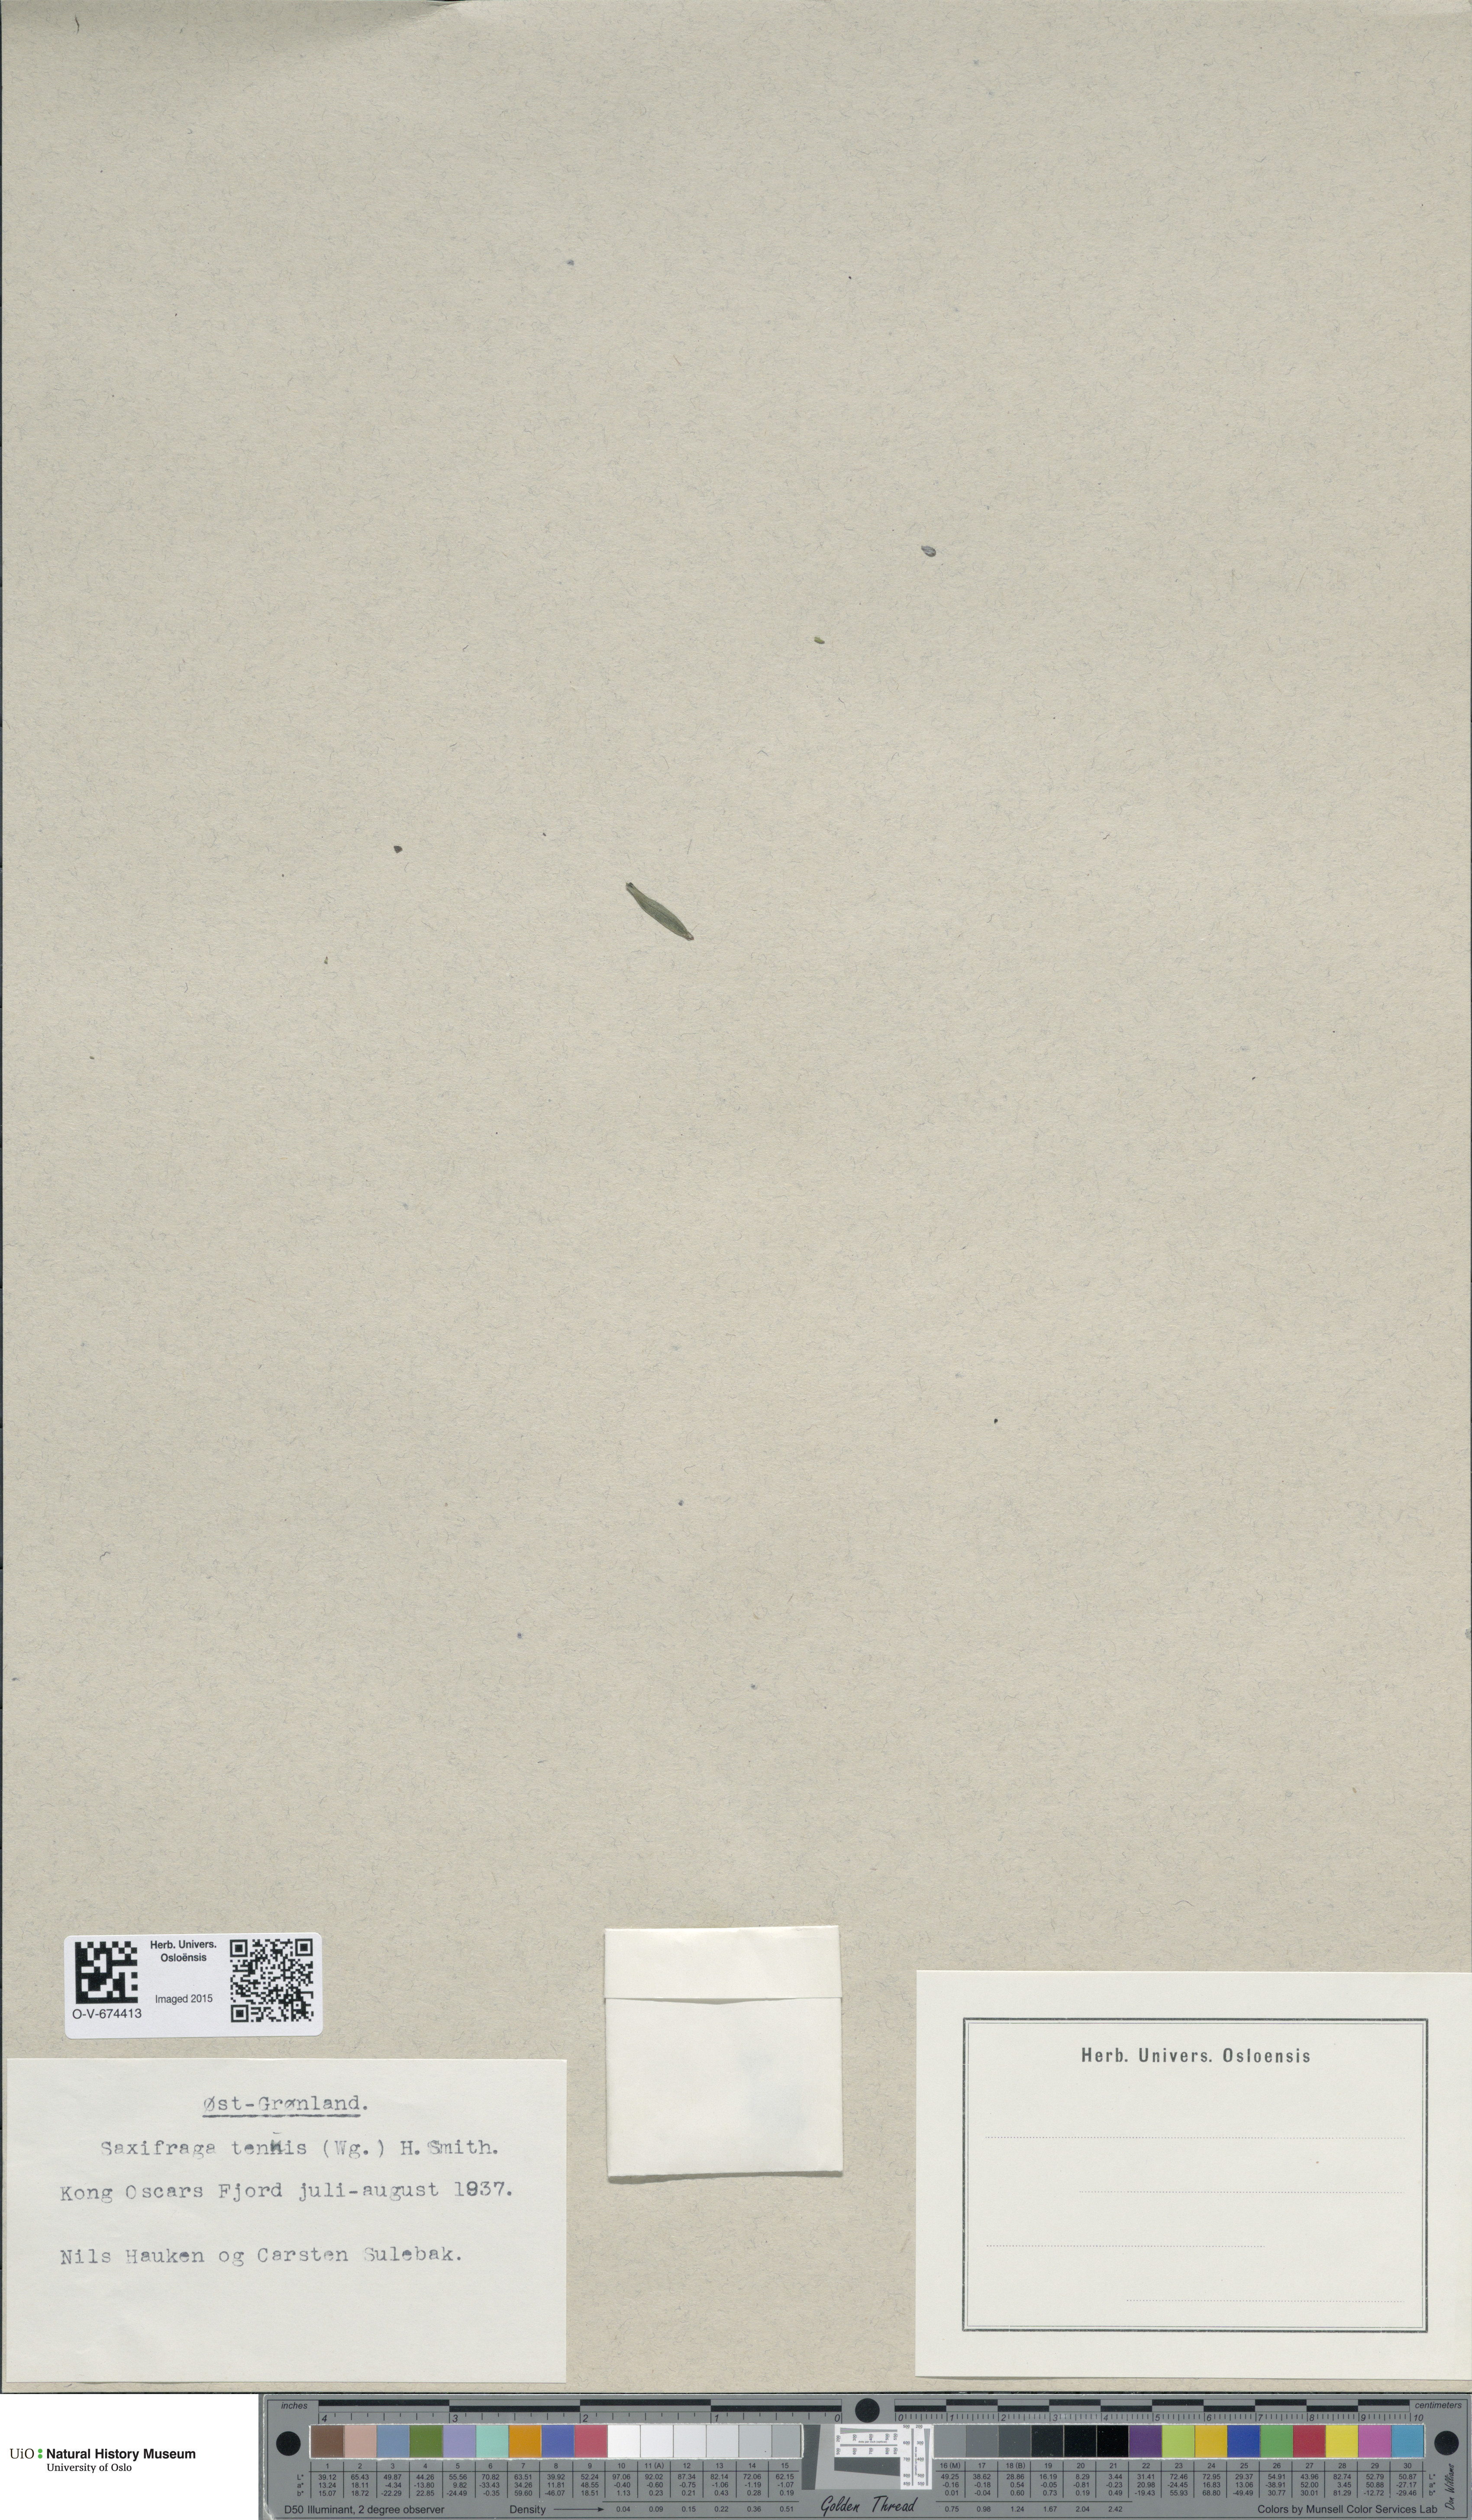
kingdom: Plantae
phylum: Tracheophyta
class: Magnoliopsida
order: Saxifragales
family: Saxifragaceae
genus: Micranthes
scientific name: Micranthes tenuis
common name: Ottertail pass saxifrage
